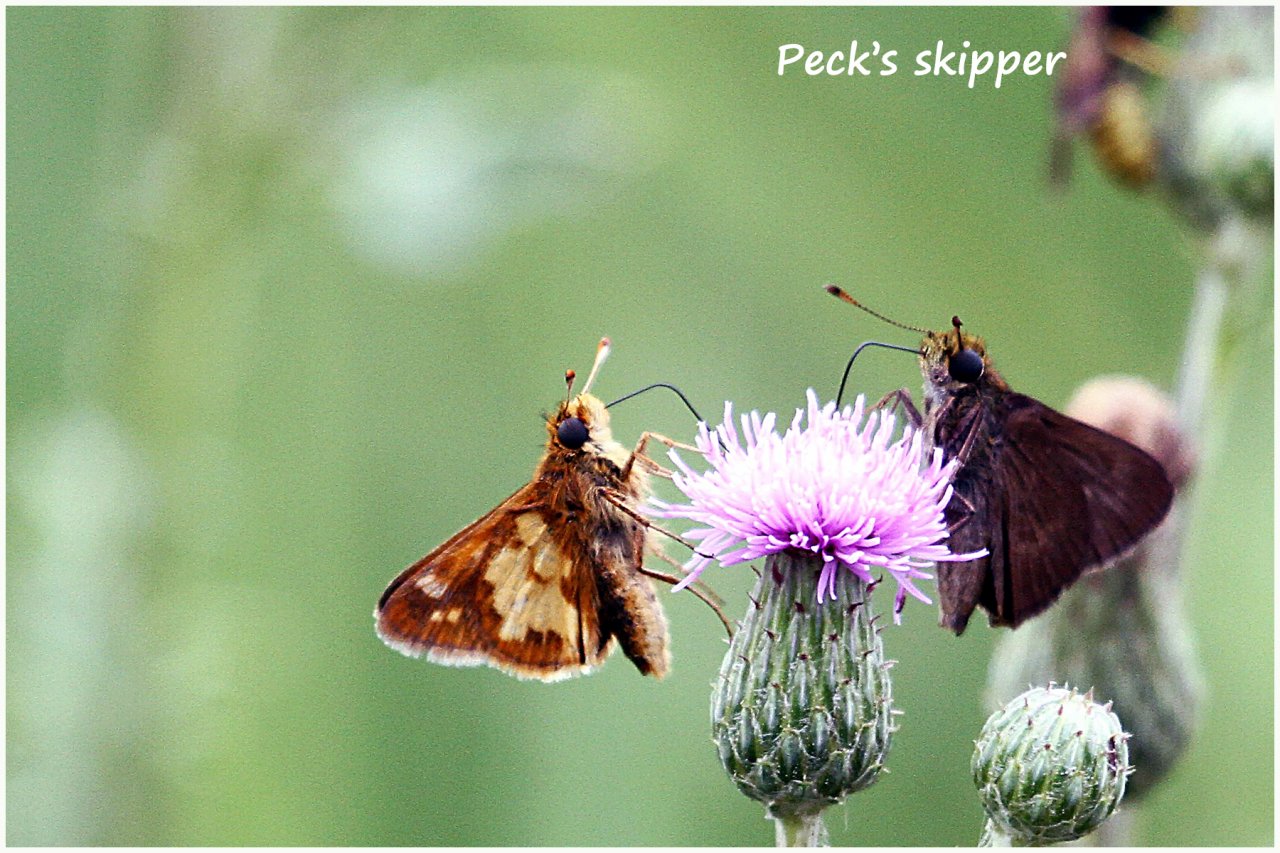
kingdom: Animalia
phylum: Arthropoda
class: Insecta
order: Lepidoptera
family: Hesperiidae
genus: Polites
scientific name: Polites coras
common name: Peck's Skipper
